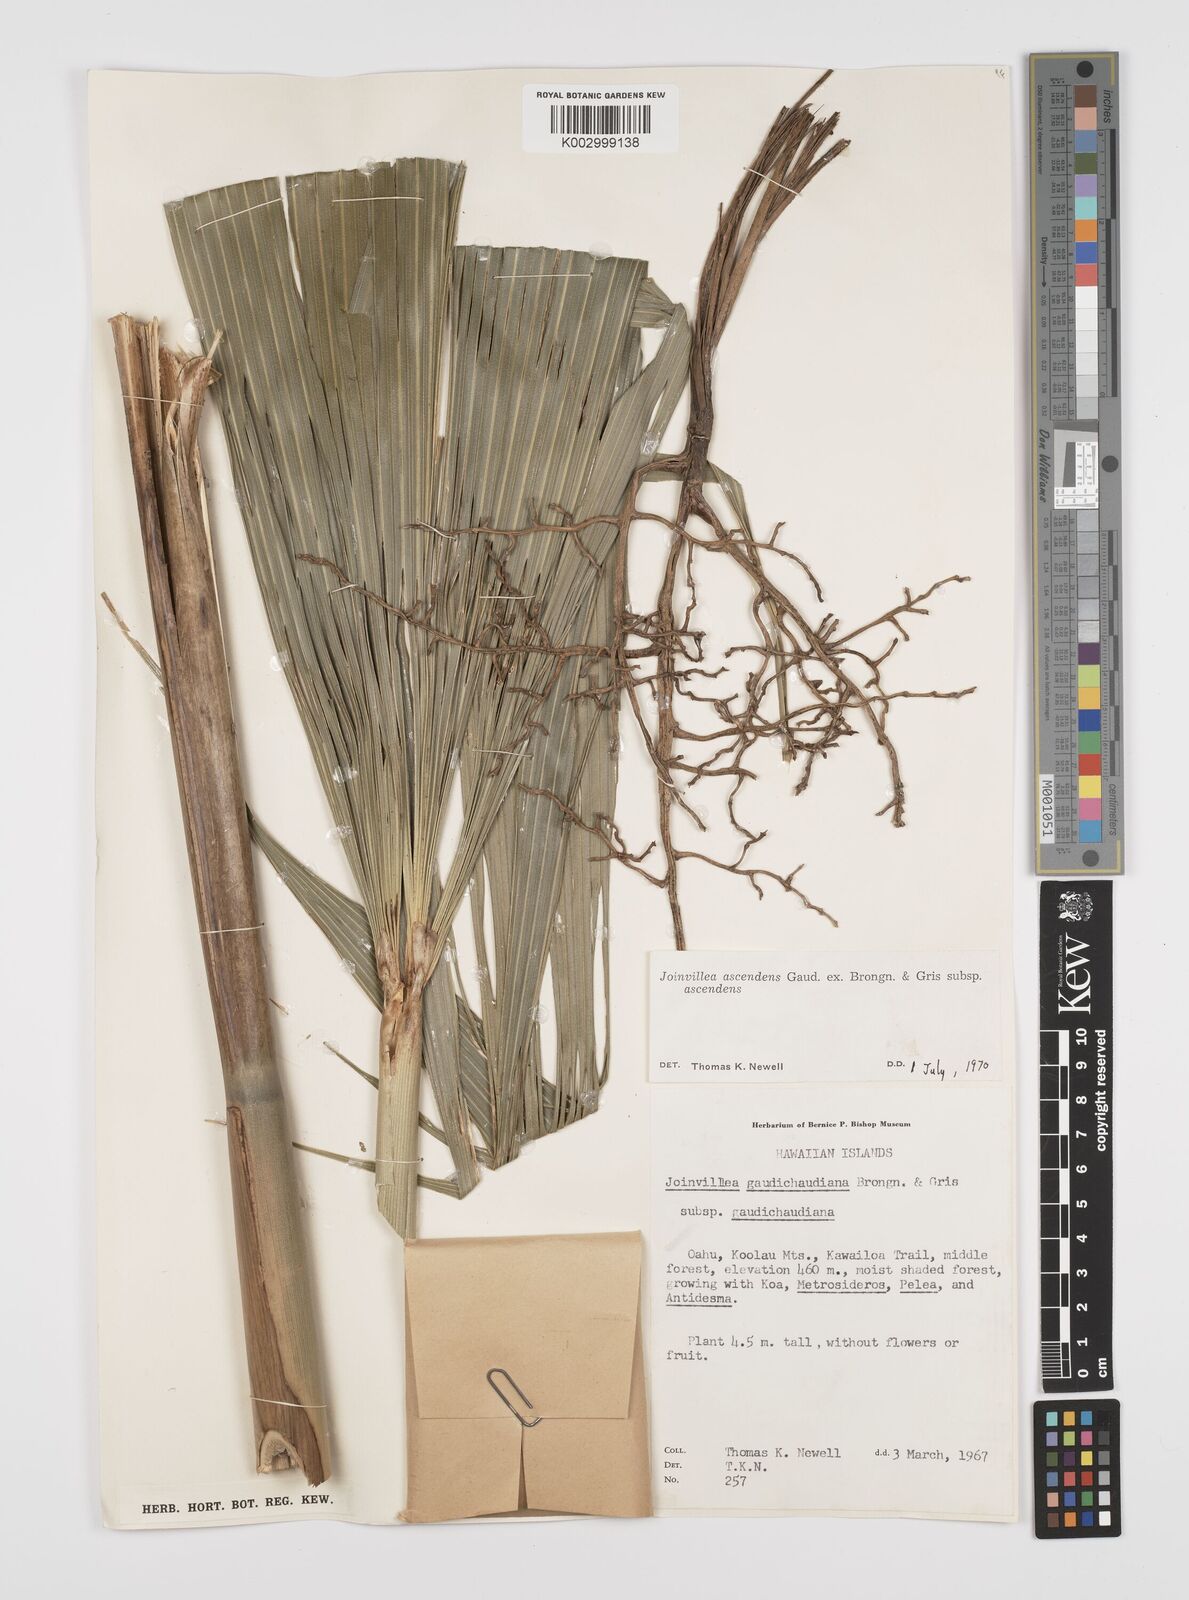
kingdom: Plantae
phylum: Tracheophyta
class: Liliopsida
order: Poales
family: Joinvilleaceae
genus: Joinvillea
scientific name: Joinvillea ascendens
